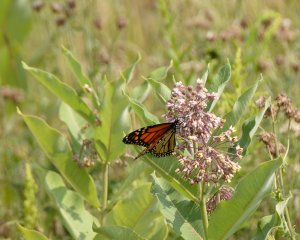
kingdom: Animalia
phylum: Arthropoda
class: Insecta
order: Lepidoptera
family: Nymphalidae
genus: Danaus
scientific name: Danaus plexippus
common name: Monarch
